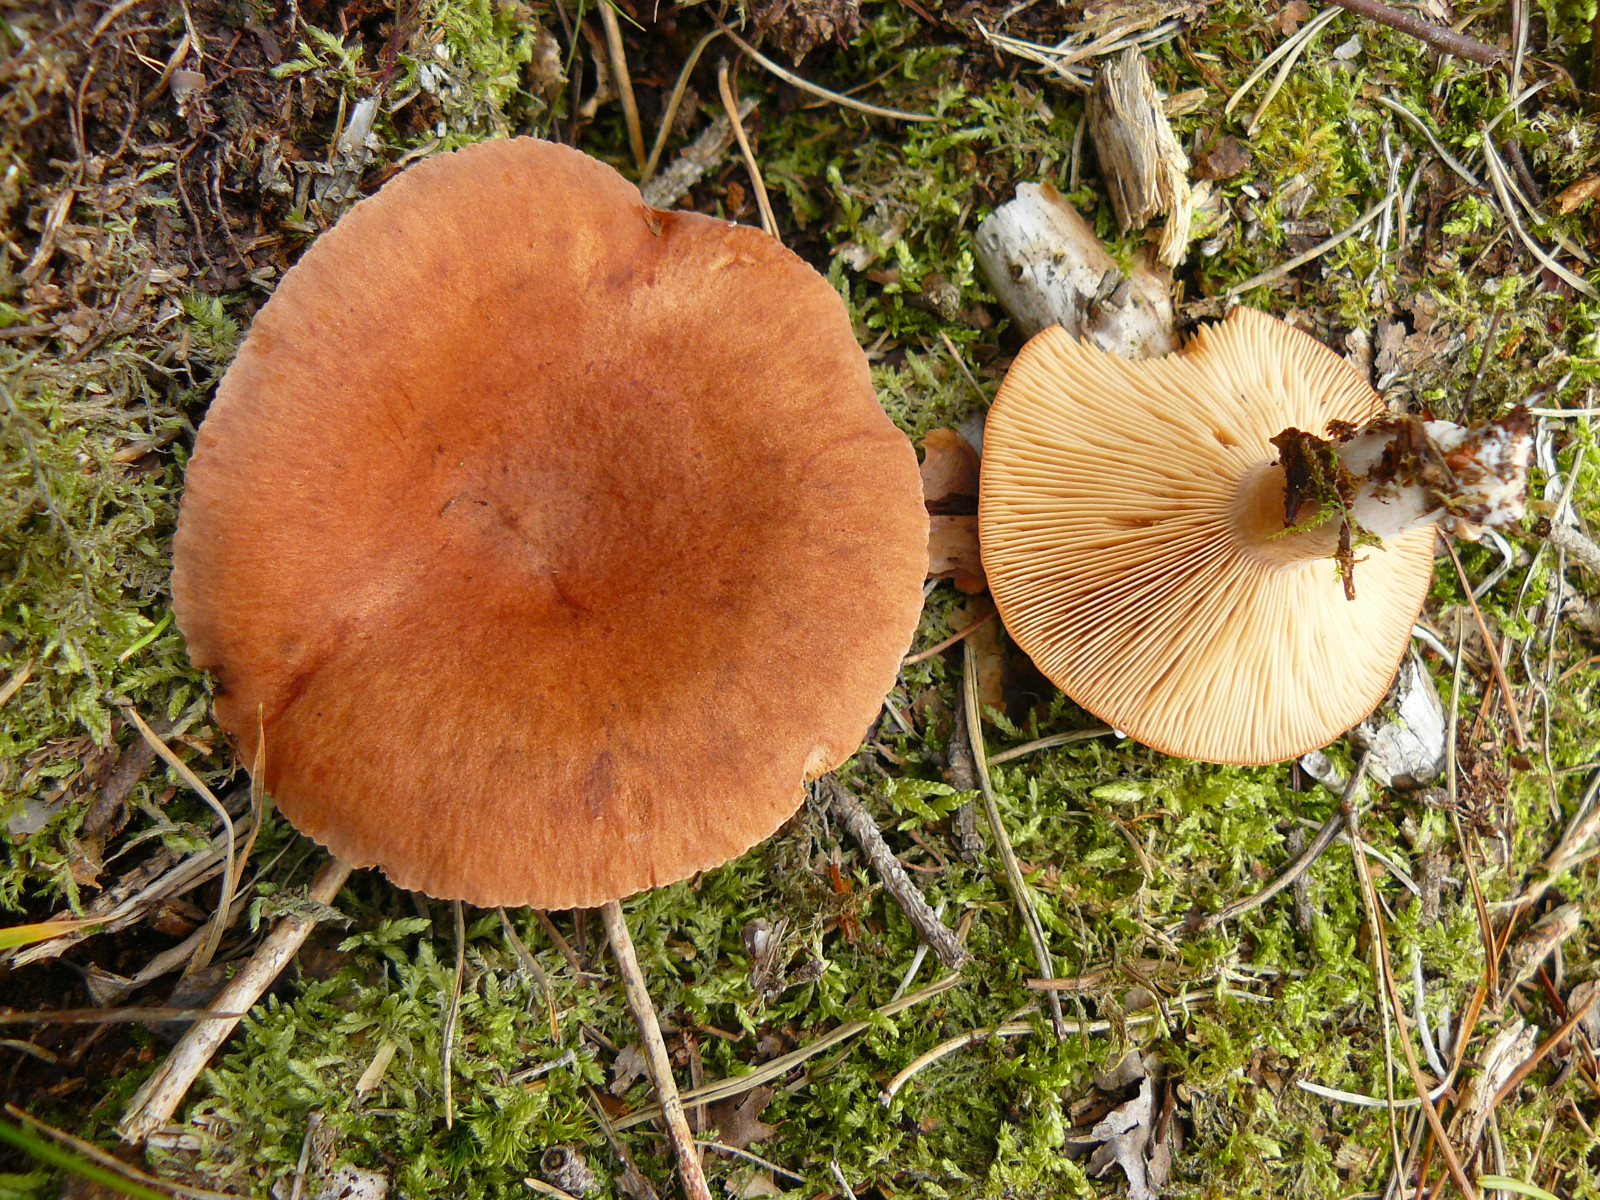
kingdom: Fungi
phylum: Basidiomycota
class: Agaricomycetes
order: Russulales
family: Russulaceae
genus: Lactarius
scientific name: Lactarius rufus
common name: rødbrun mælkehat
